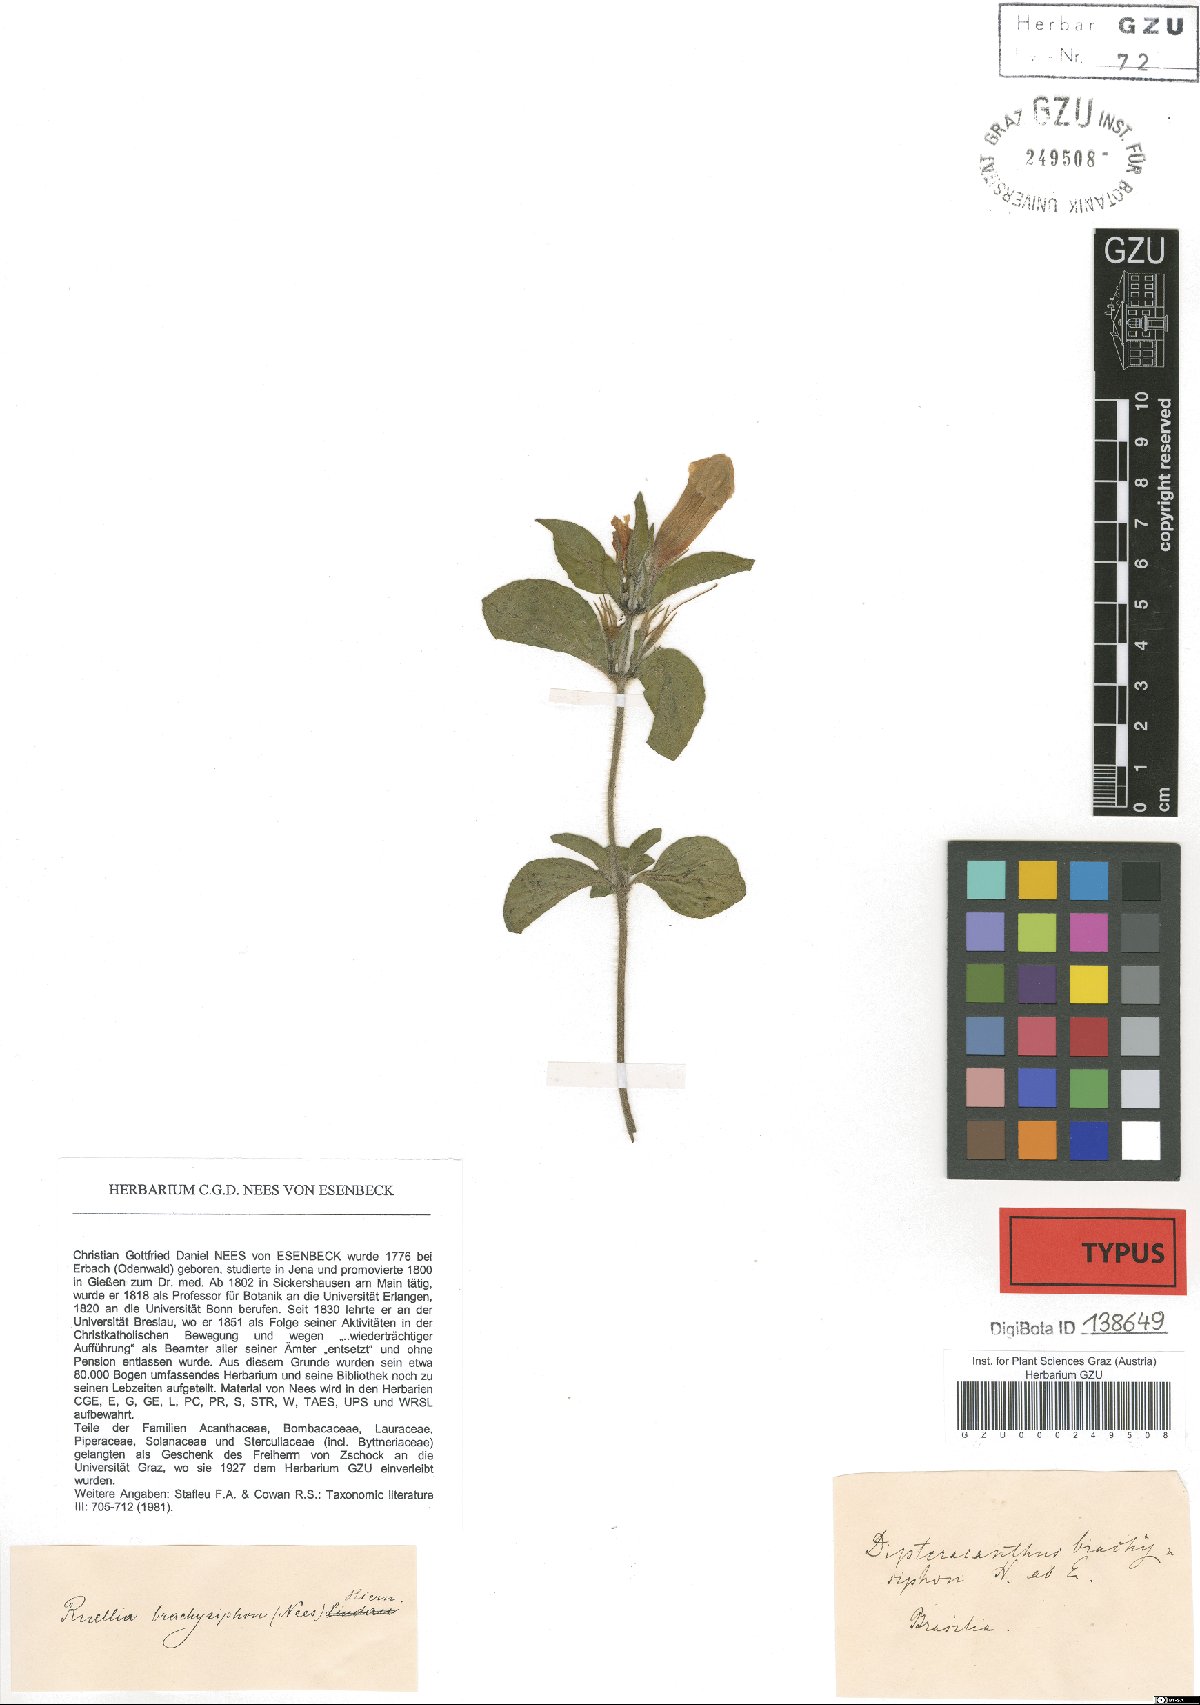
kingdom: Plantae
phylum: Tracheophyta
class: Magnoliopsida
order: Lamiales
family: Acanthaceae
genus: Ruellia
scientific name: Ruellia brachysiphon
